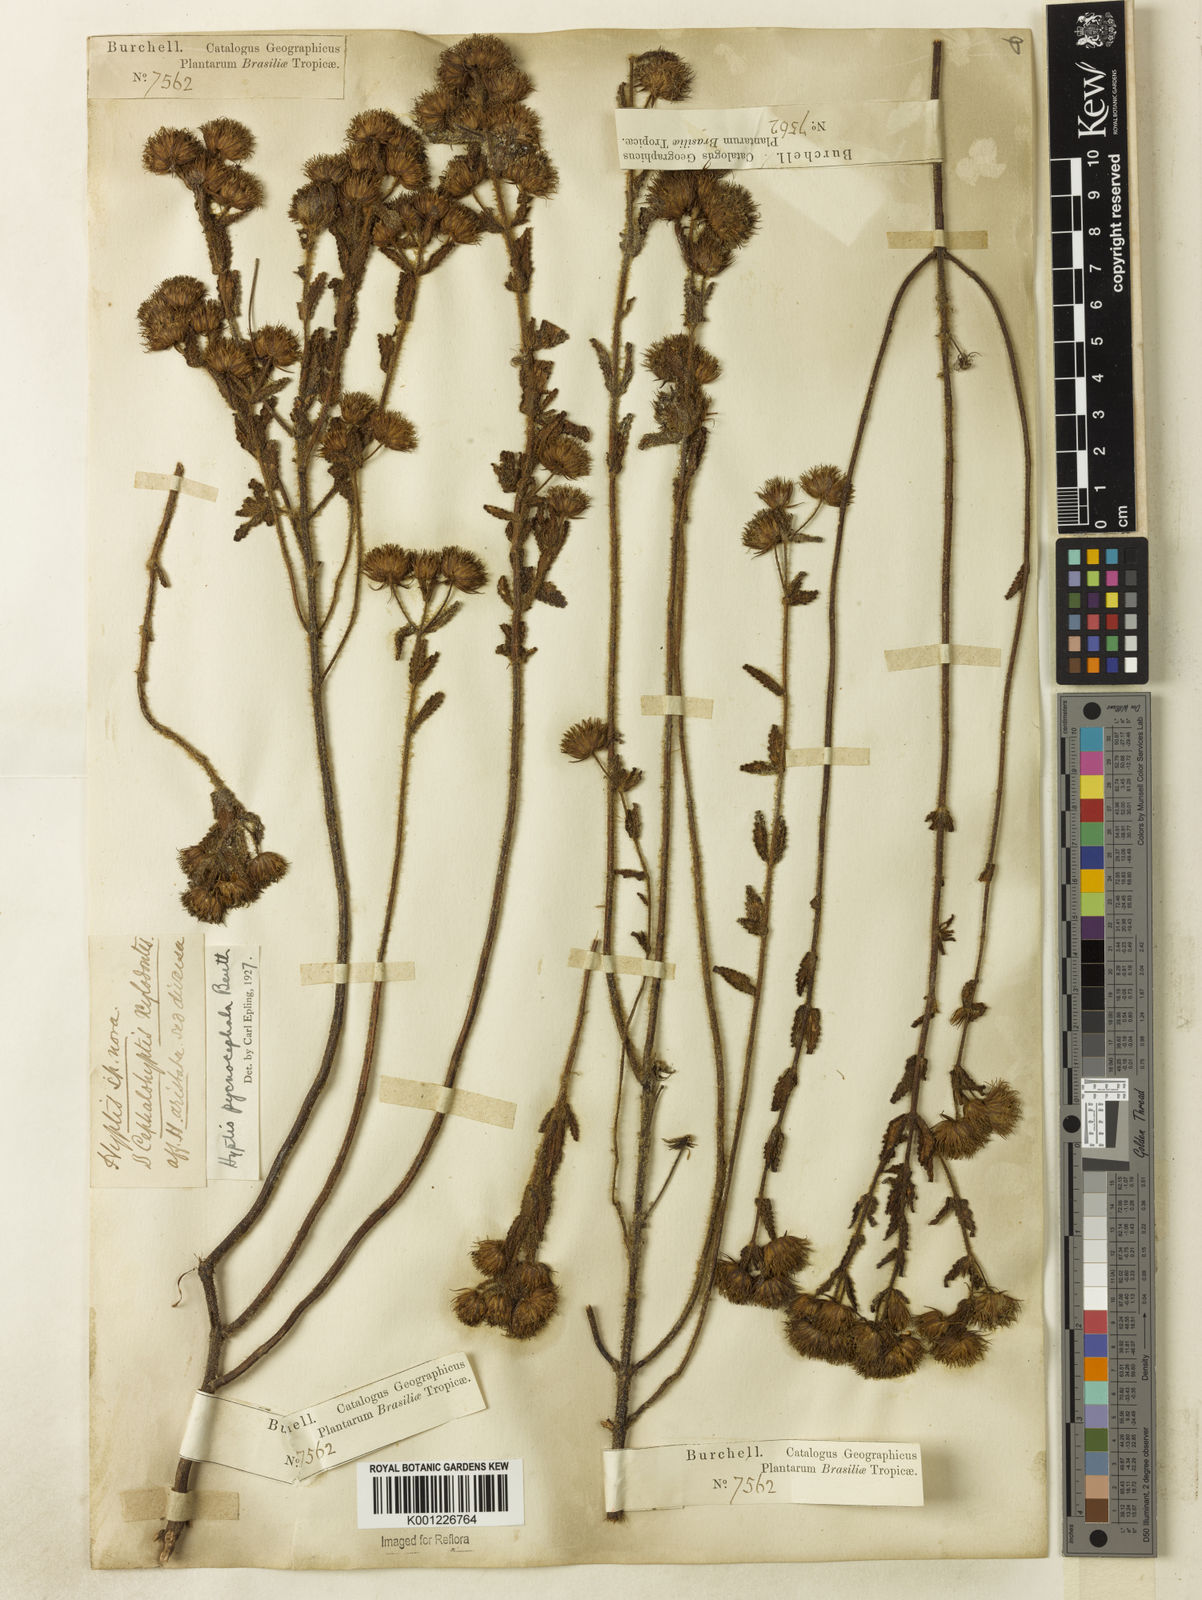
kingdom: Plantae
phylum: Tracheophyta
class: Magnoliopsida
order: Lamiales
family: Lamiaceae
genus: Hyptis
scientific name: Hyptis pycnocephala
